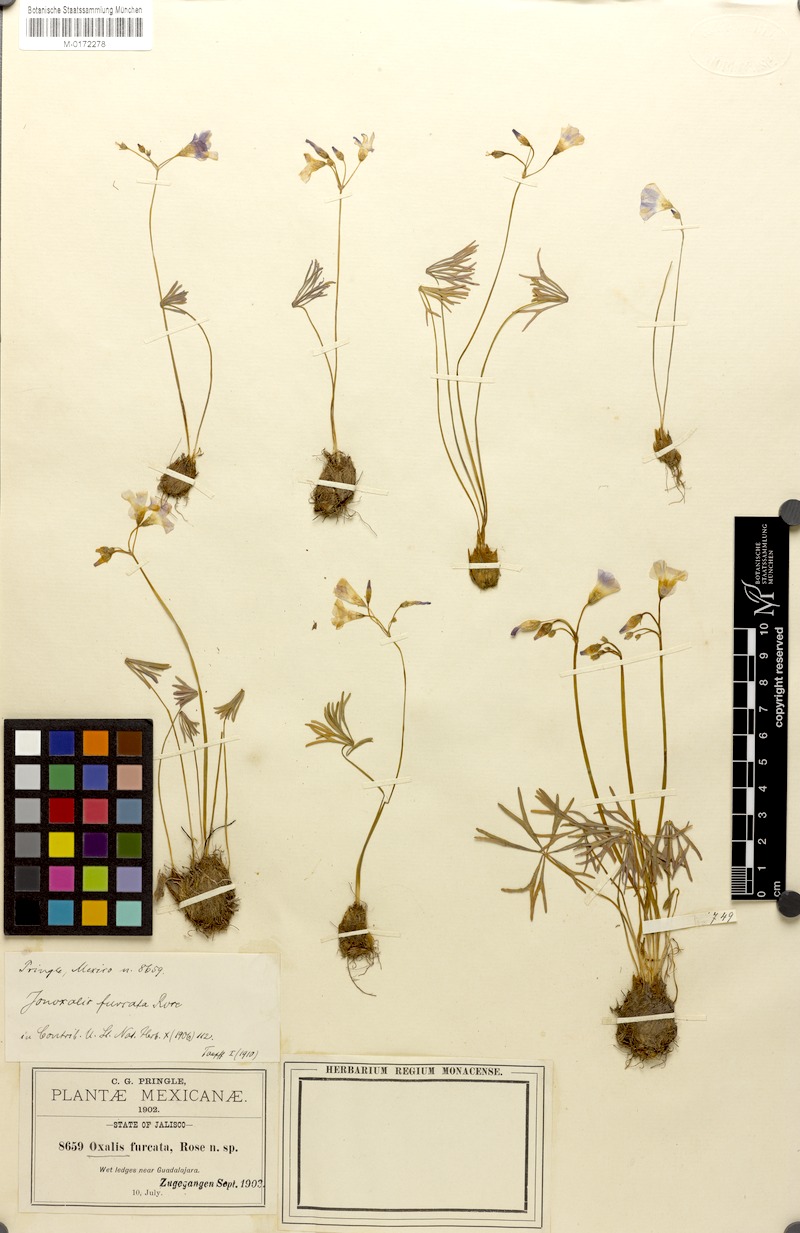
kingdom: Plantae
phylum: Tracheophyta
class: Magnoliopsida
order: Oxalidales
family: Oxalidaceae
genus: Oxalis
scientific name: Oxalis decaphylla
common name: Ten-leaved pink-sorrel
